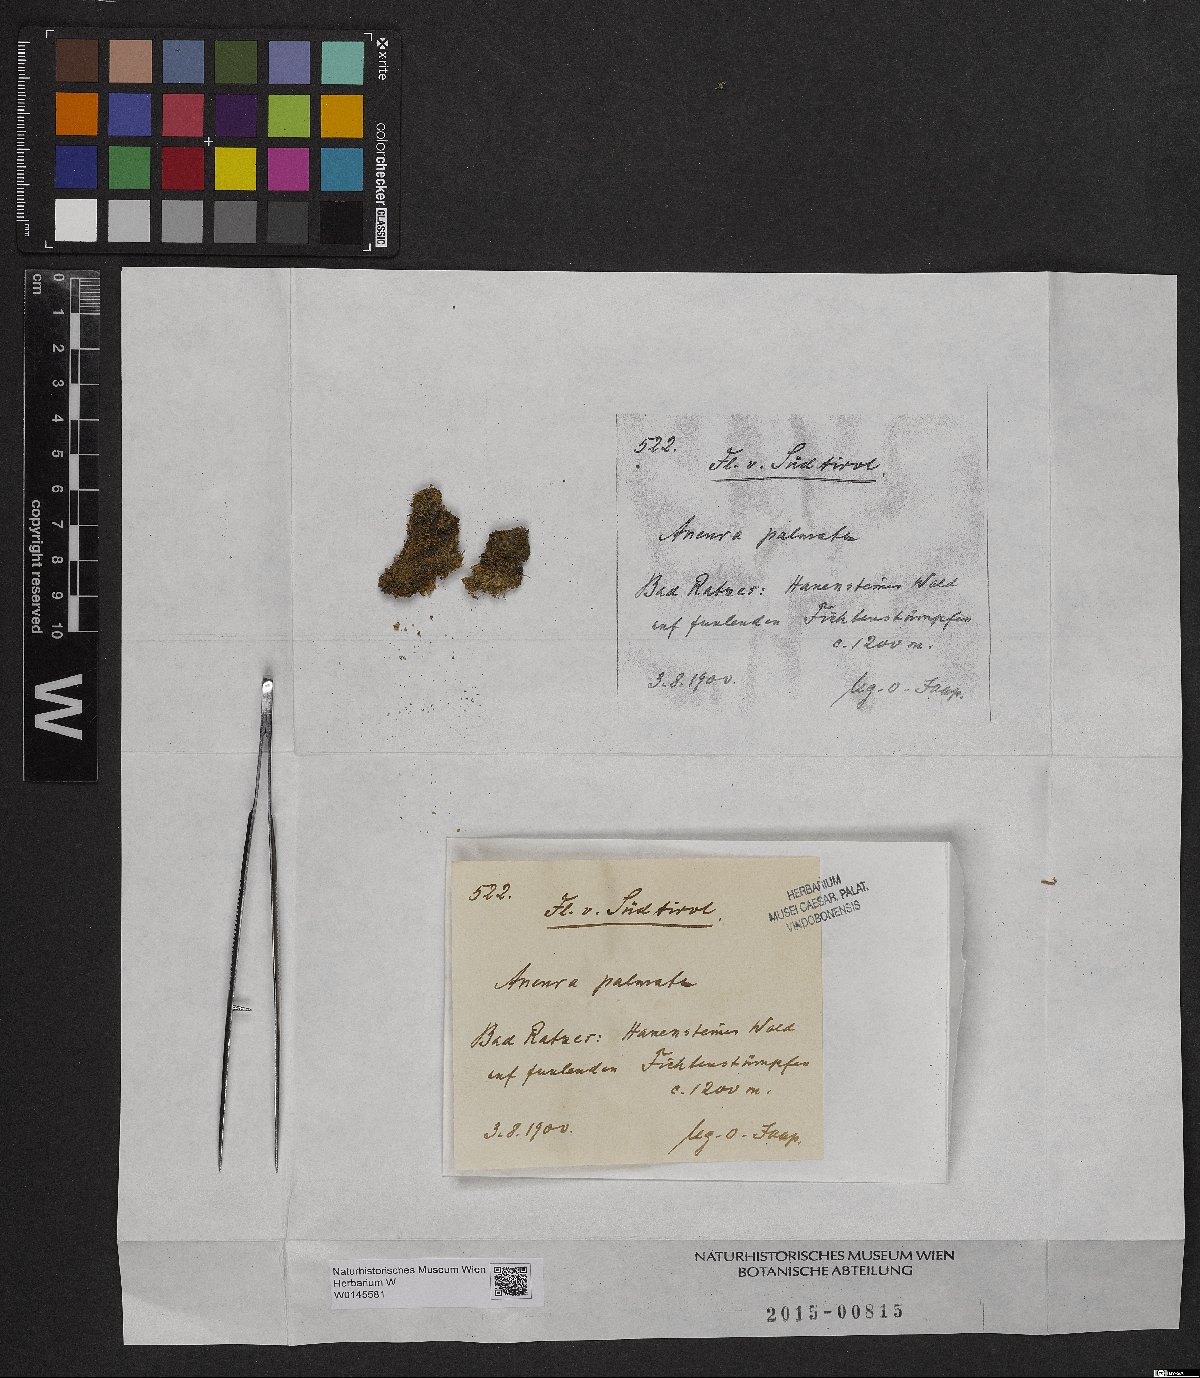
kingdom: Plantae
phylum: Marchantiophyta
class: Jungermanniopsida
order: Metzgeriales
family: Aneuraceae
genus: Riccardia
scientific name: Riccardia palmata
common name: Palmate germanderwort
